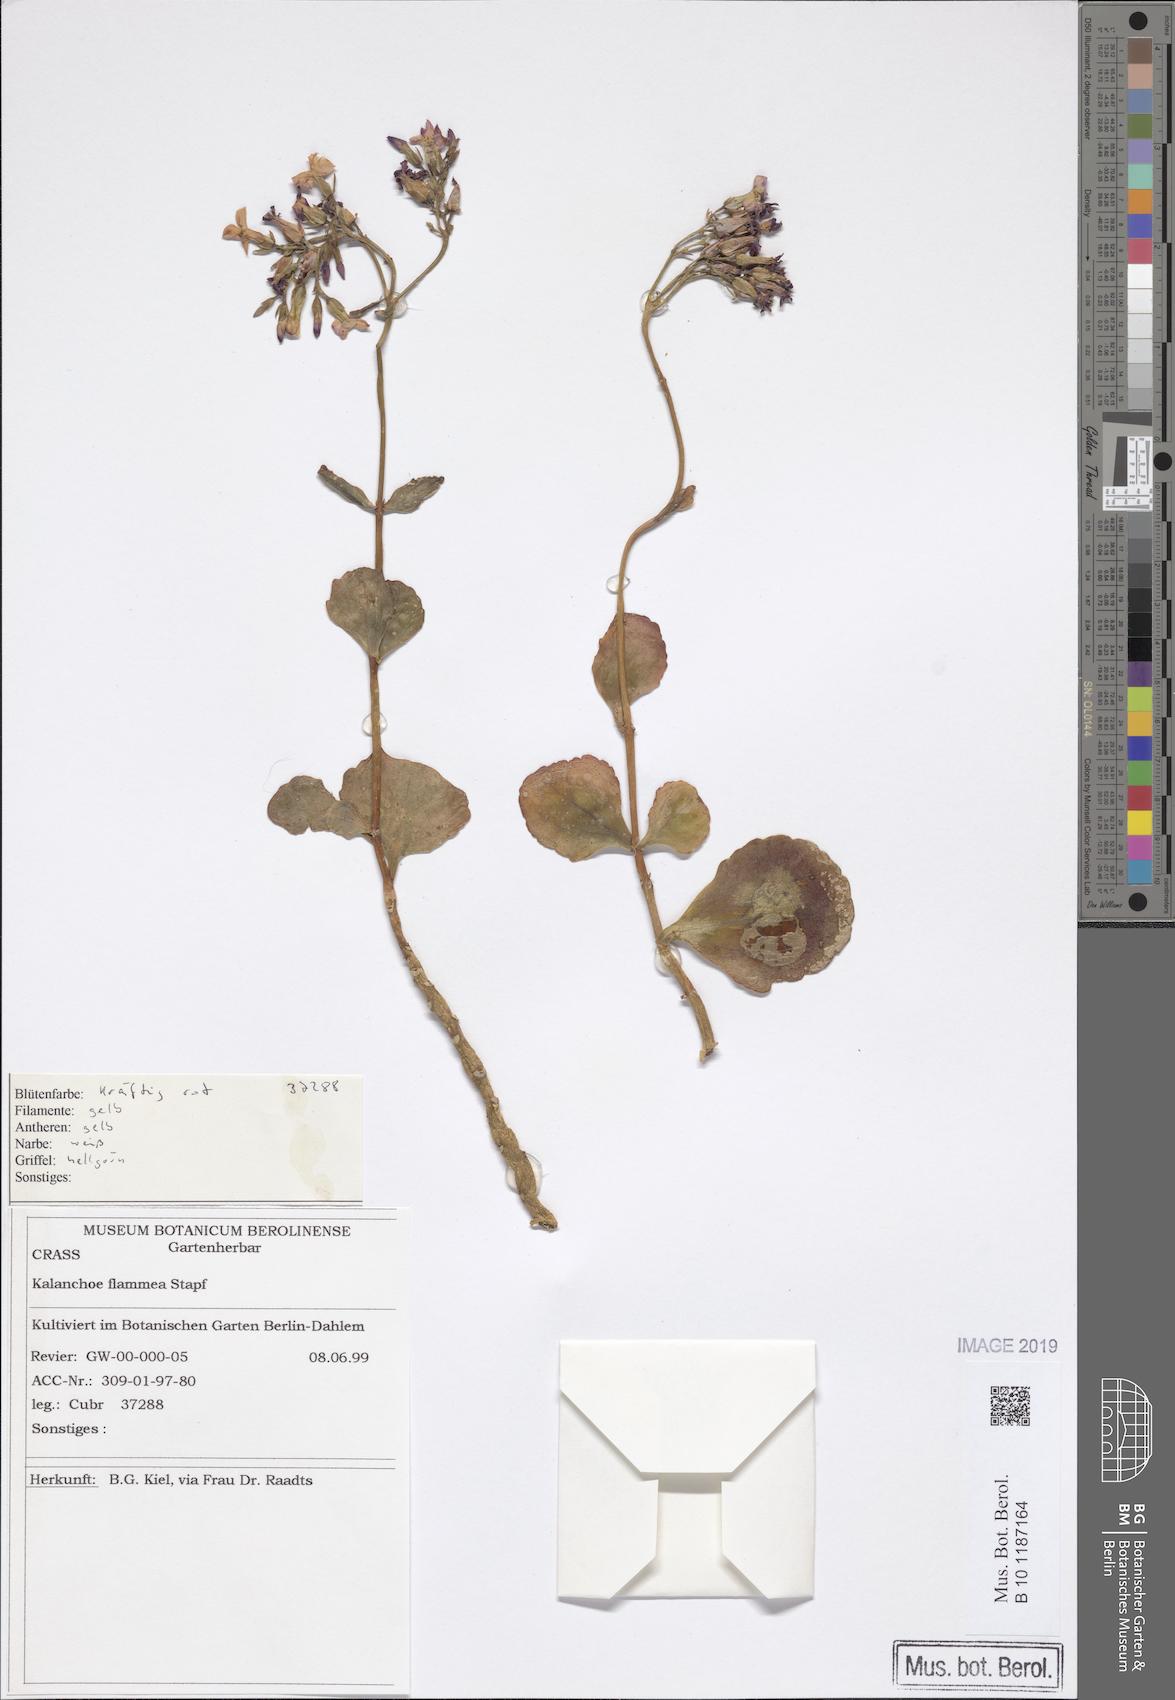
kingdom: Plantae
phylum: Tracheophyta
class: Magnoliopsida
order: Saxifragales
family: Crassulaceae
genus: Kalanchoe
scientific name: Kalanchoe glaucescens
